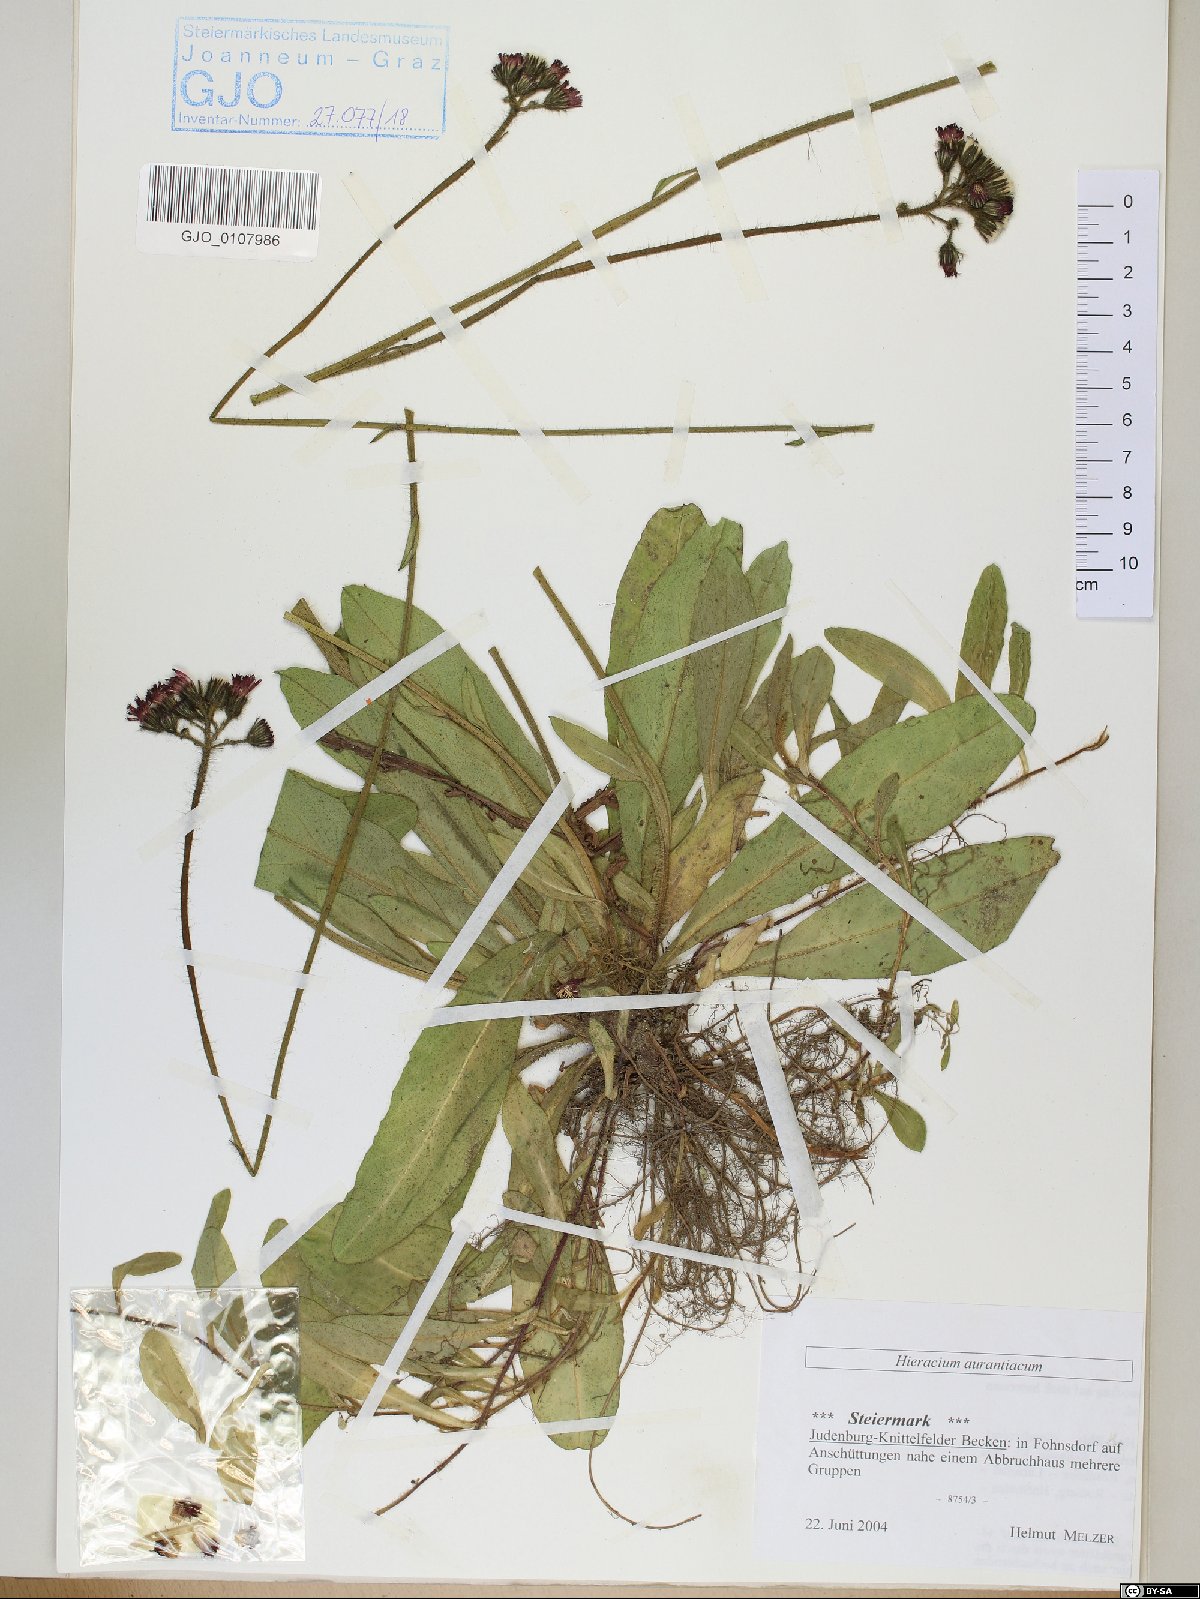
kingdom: Plantae
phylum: Tracheophyta
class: Magnoliopsida
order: Asterales
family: Asteraceae
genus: Pilosella
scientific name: Pilosella aurantiaca
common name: Fox-and-cubs
